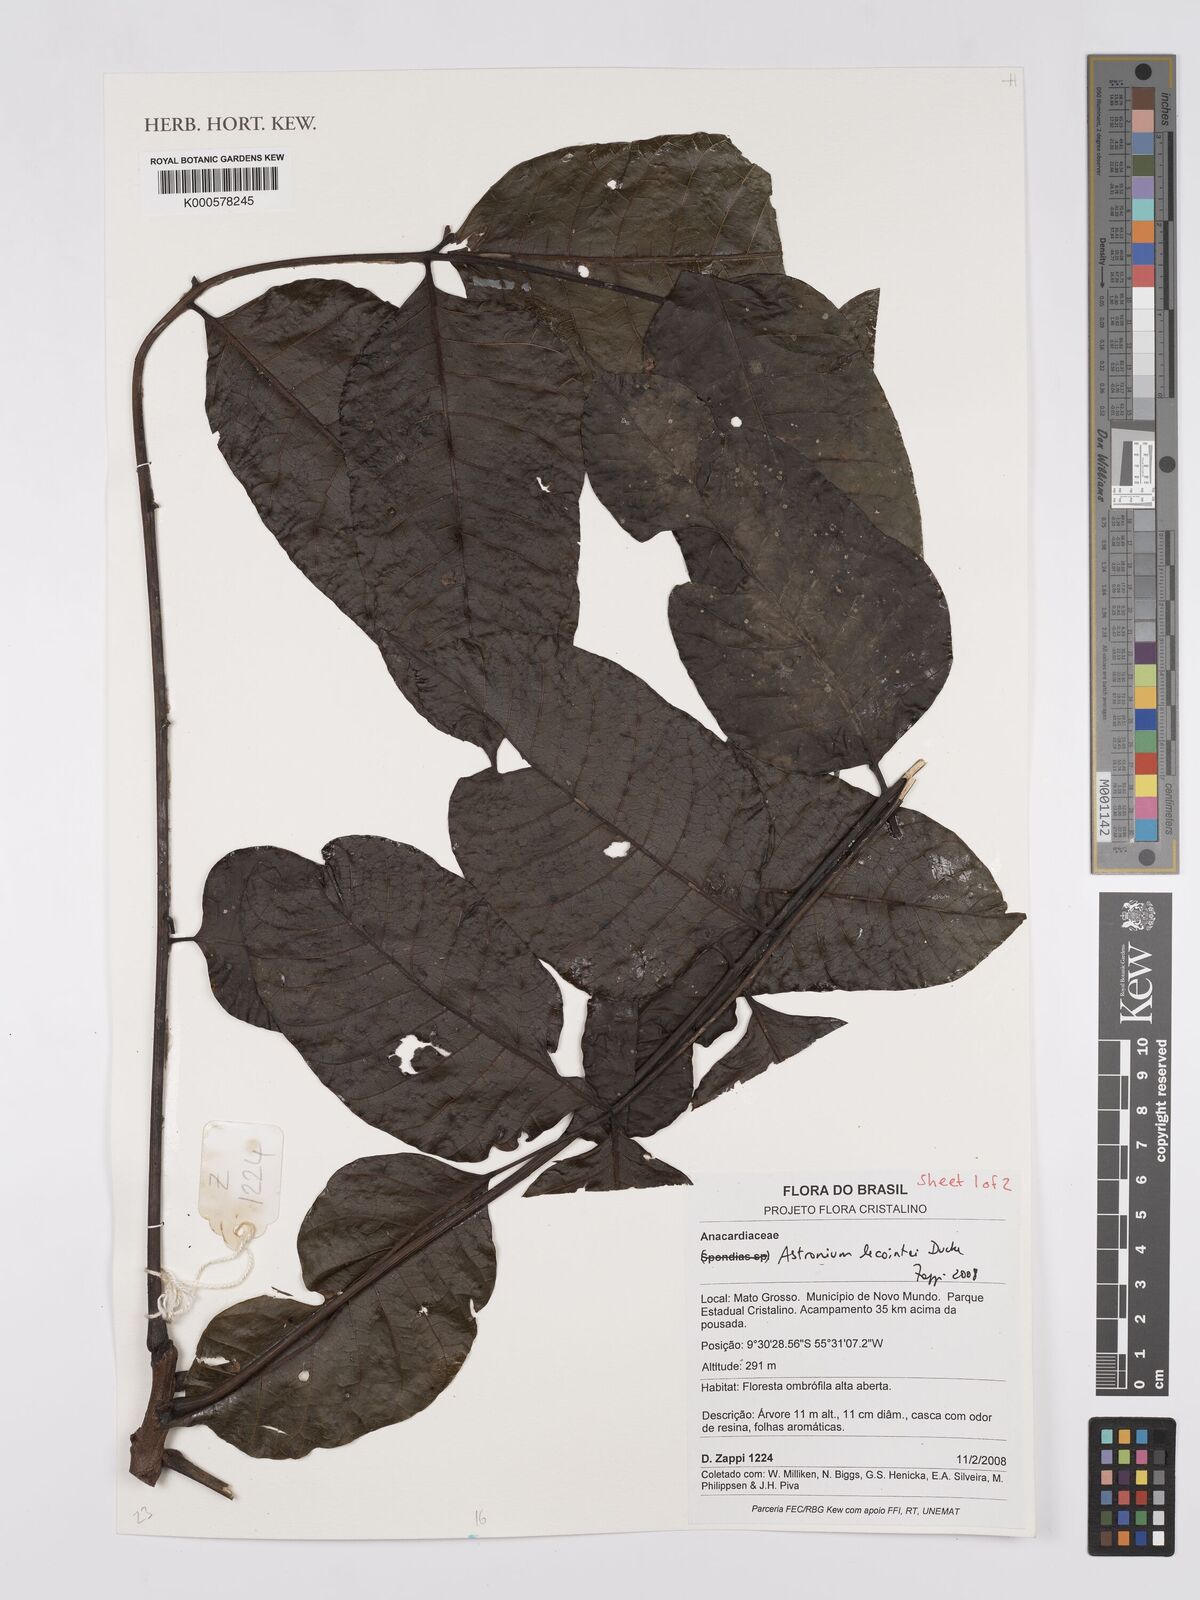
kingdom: Plantae
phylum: Tracheophyta
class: Magnoliopsida
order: Sapindales
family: Anacardiaceae
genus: Astronium
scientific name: Astronium lecointei
